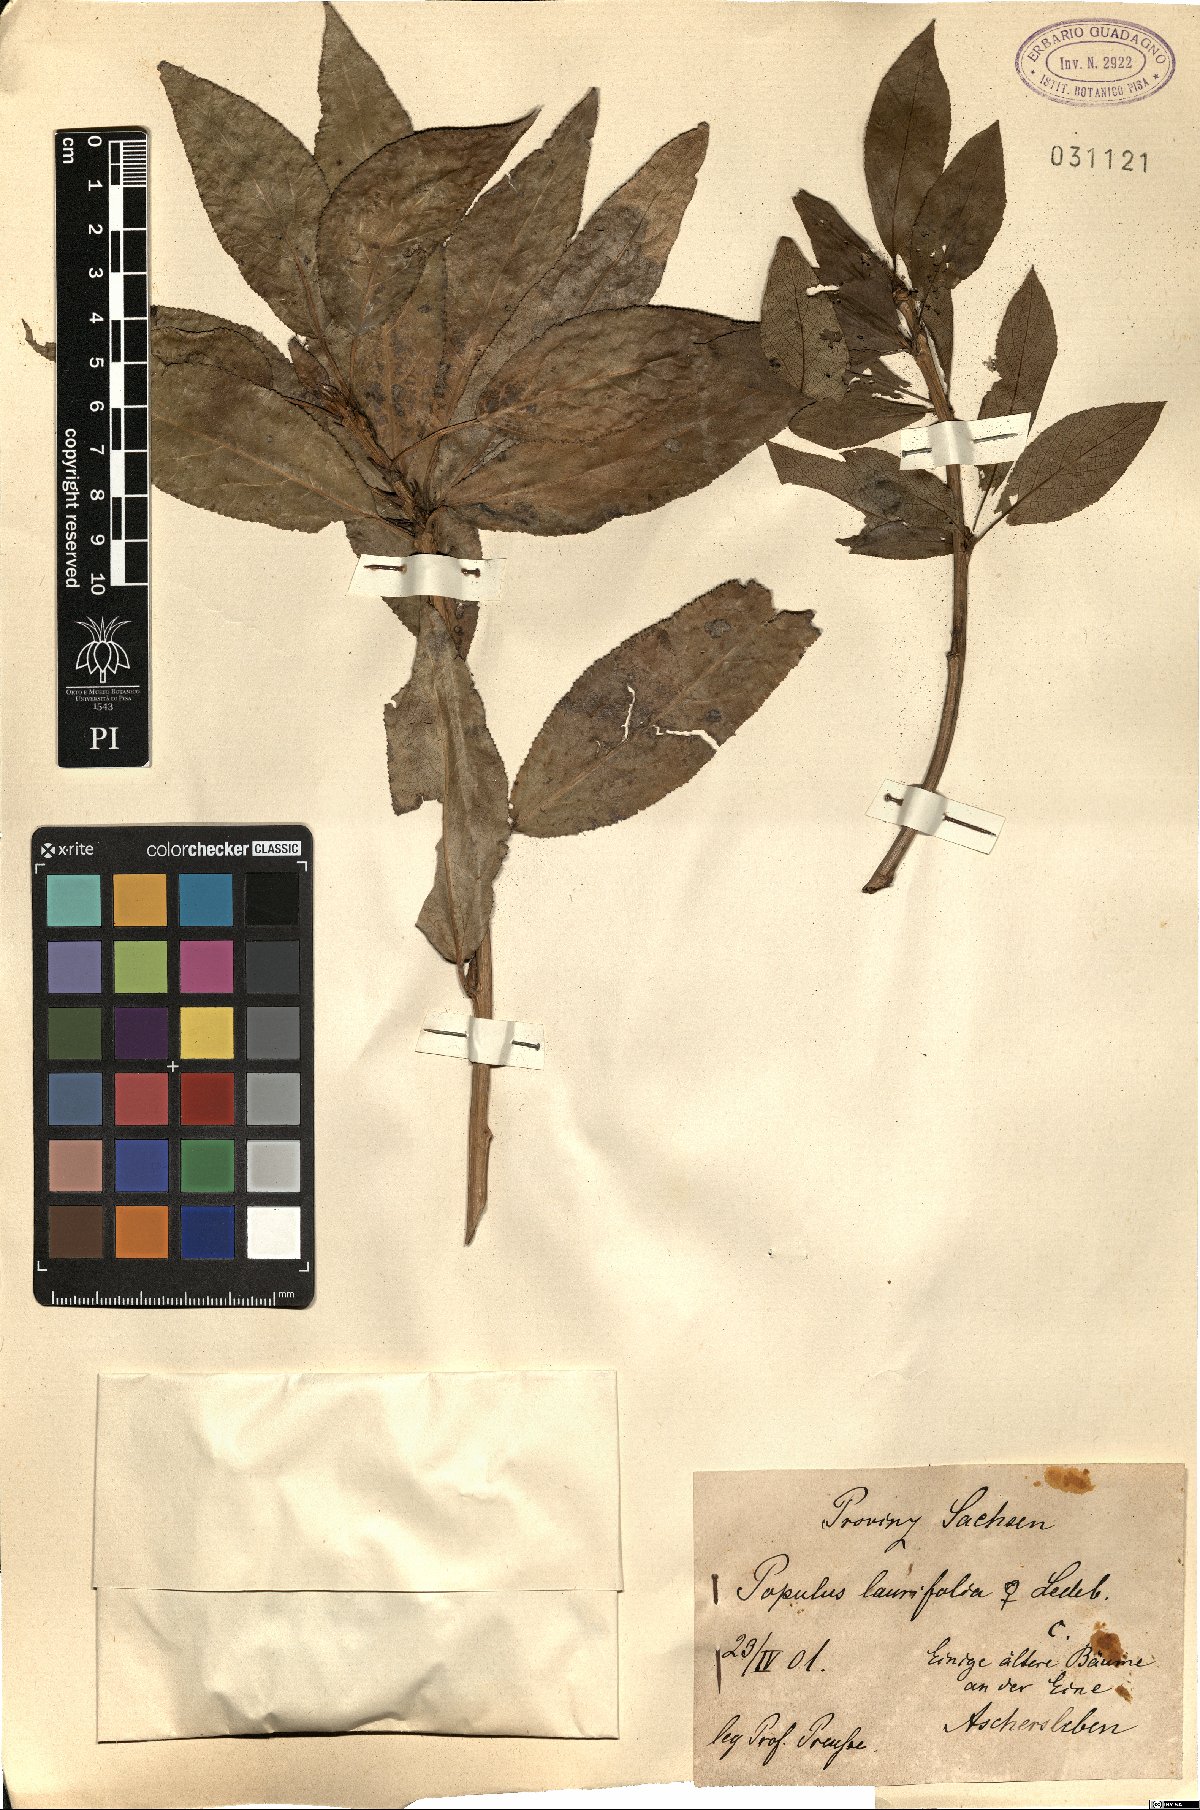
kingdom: Plantae
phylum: Tracheophyta
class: Magnoliopsida
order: Malpighiales
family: Salicaceae
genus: Populus
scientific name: Populus laurifolia
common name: Laurel-leaf poplar
